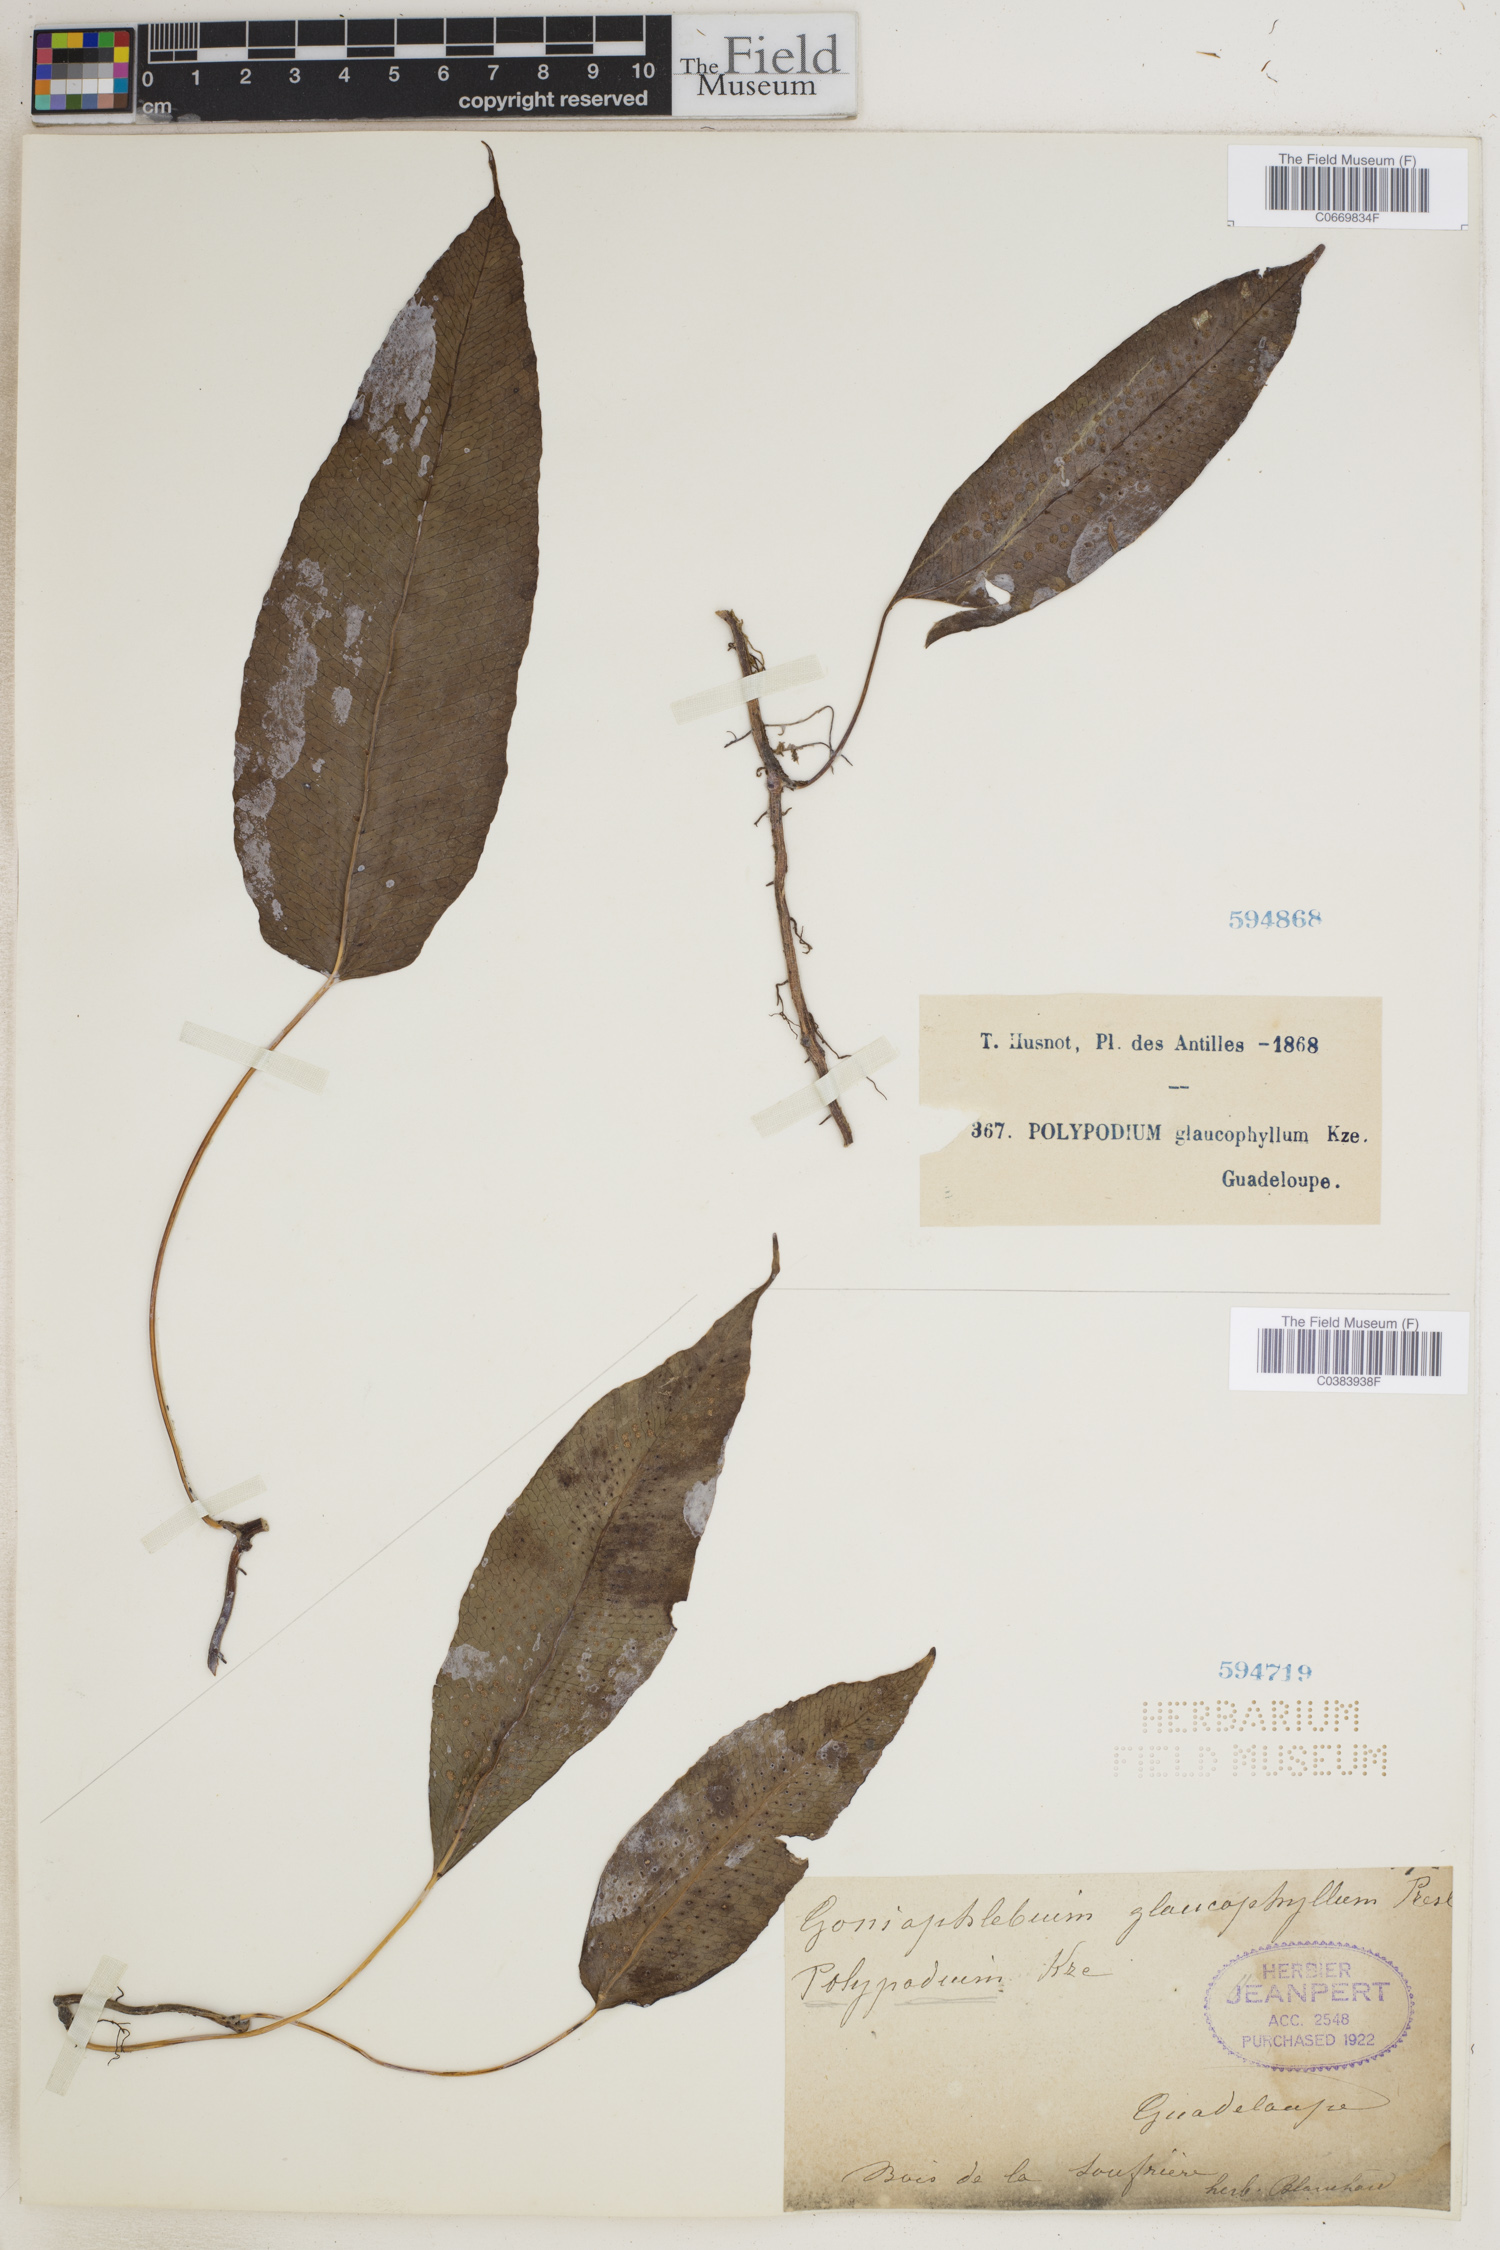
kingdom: Plantae
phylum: Tracheophyta
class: Polypodiopsida
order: Polypodiales
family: Polypodiaceae
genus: Polypodium
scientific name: Polypodium glaucophyllum
